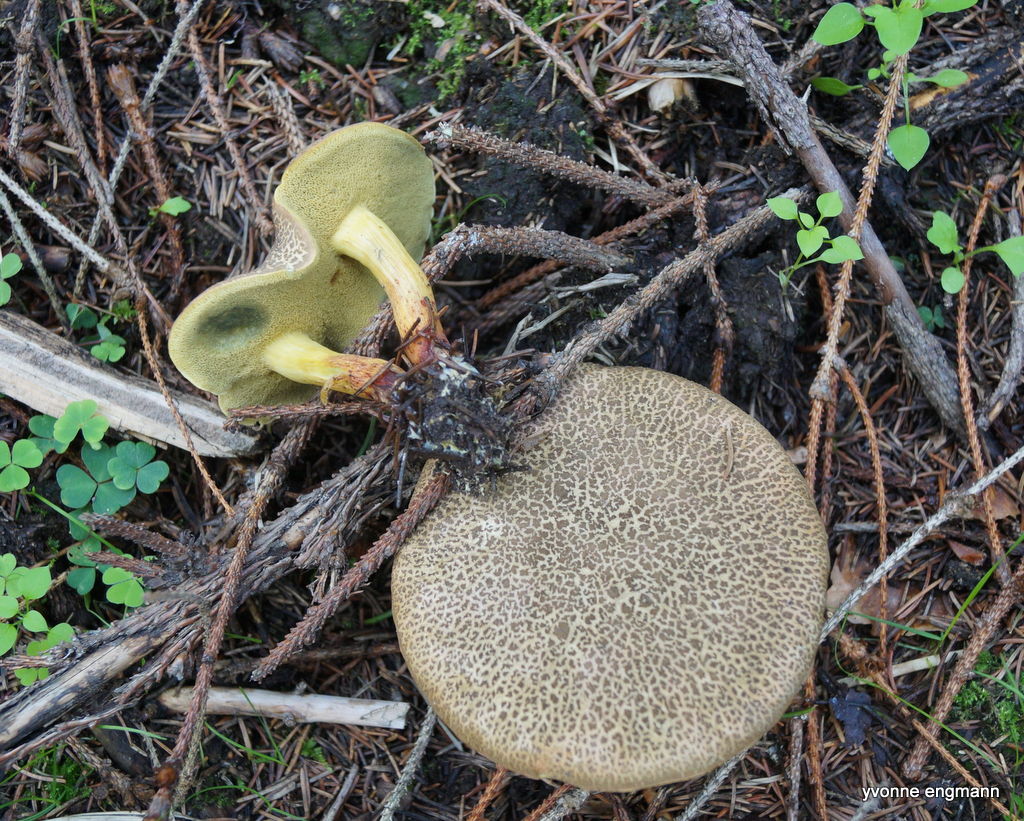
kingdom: Fungi
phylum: Basidiomycota
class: Agaricomycetes
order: Boletales
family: Boletaceae
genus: Xerocomellus
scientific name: Xerocomellus cisalpinus
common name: finsprukken rørhat
